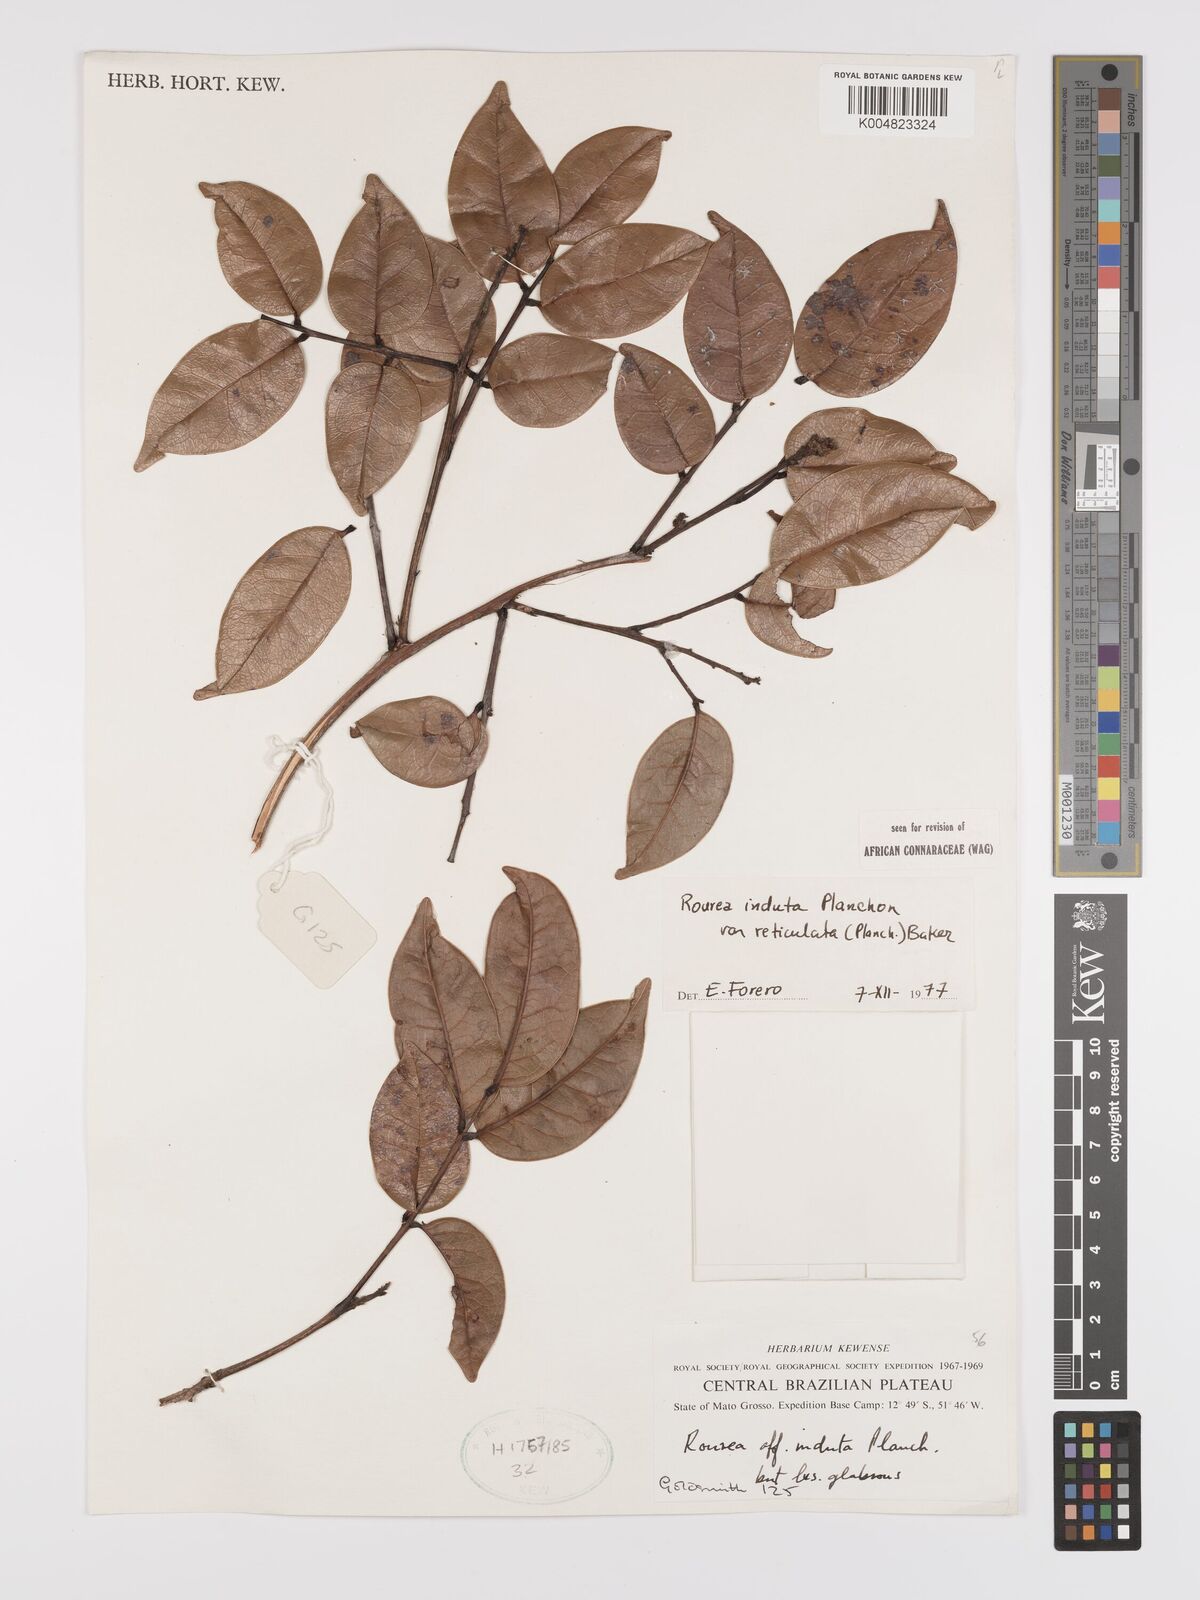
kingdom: Plantae
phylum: Tracheophyta
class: Magnoliopsida
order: Oxalidales
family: Connaraceae
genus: Rourea
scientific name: Rourea induta
